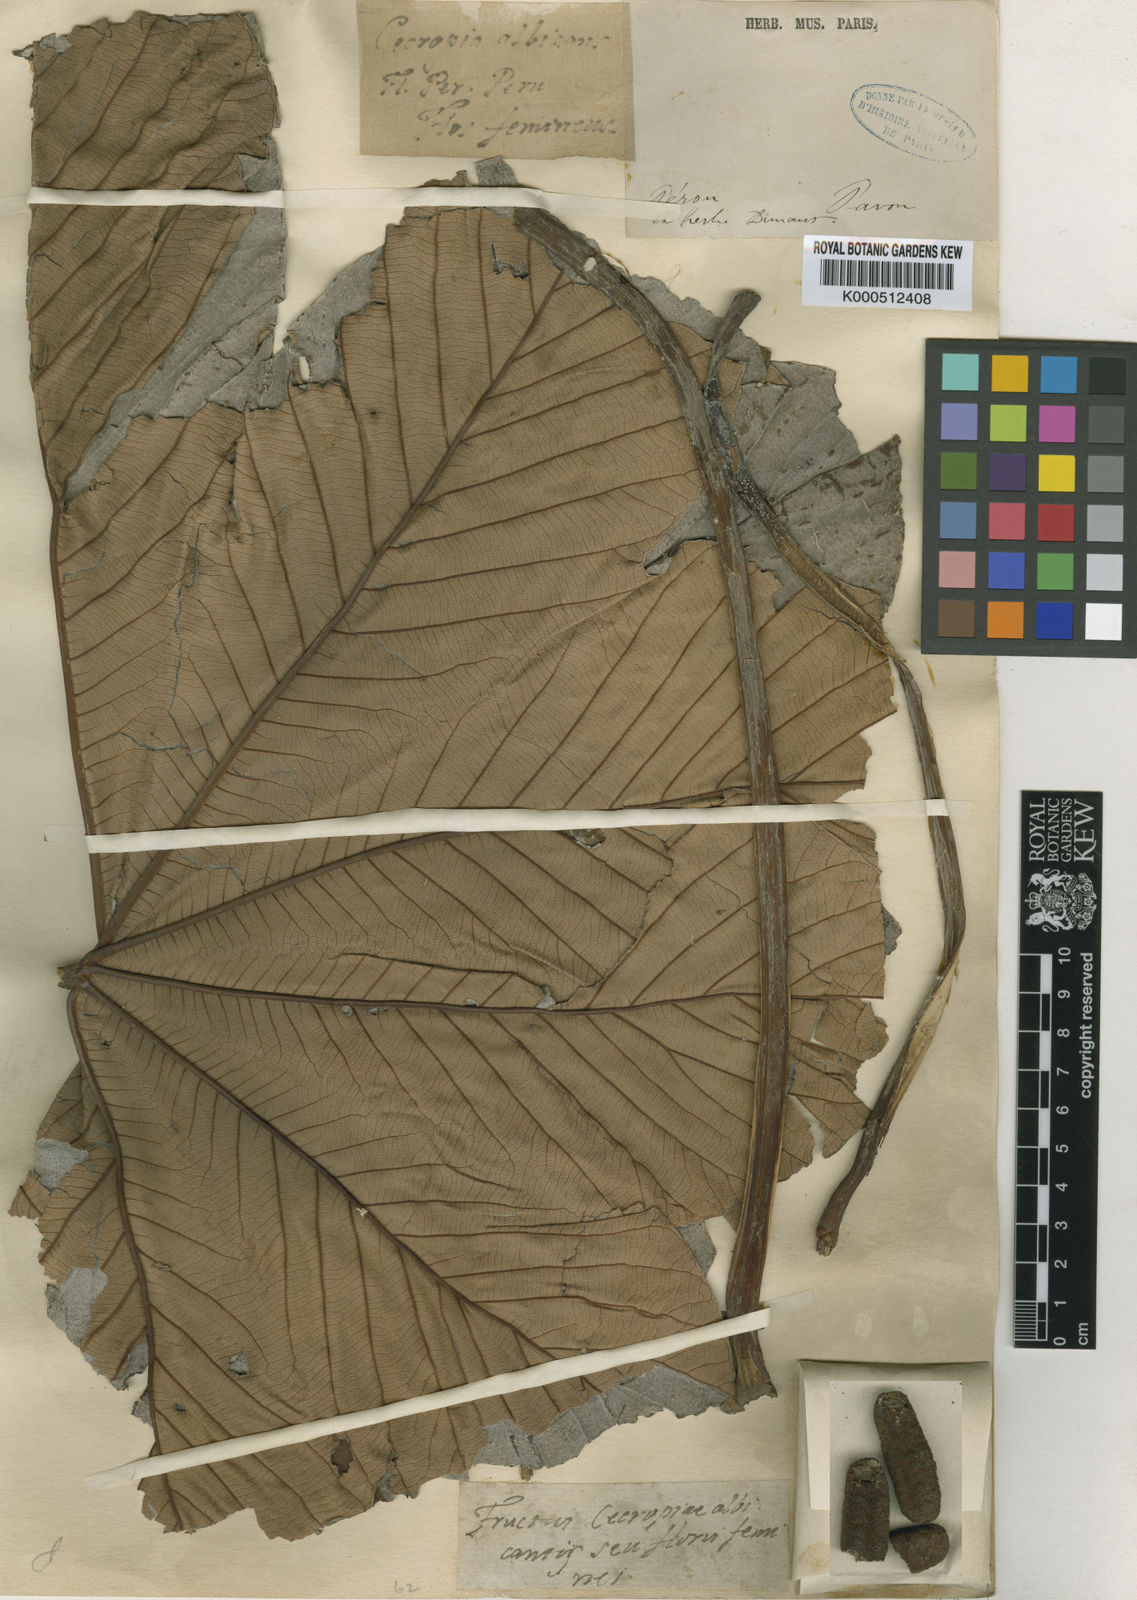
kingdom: Plantae
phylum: Tracheophyta
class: Magnoliopsida
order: Rosales
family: Urticaceae
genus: Cecropia
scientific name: Cecropia
